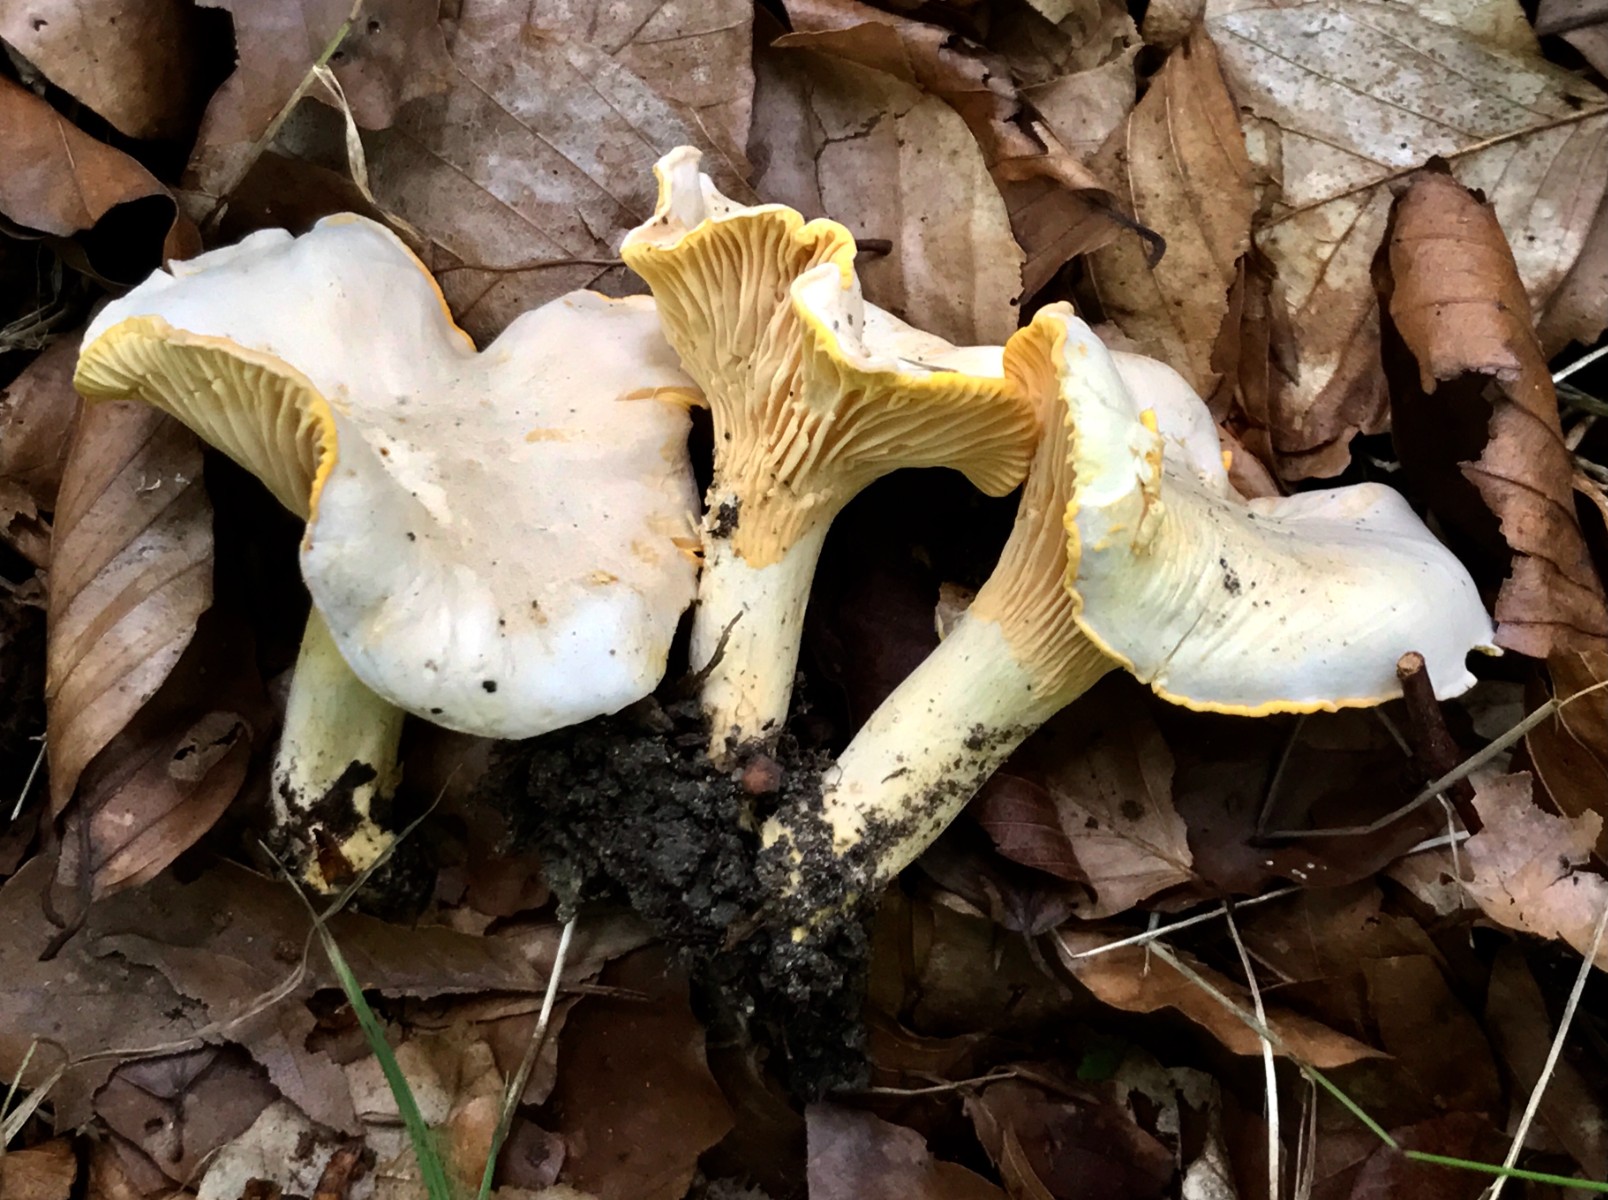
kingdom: Fungi
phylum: Basidiomycota
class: Agaricomycetes
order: Cantharellales
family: Hydnaceae
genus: Cantharellus
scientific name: Cantharellus pallens
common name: bleg kantarel
